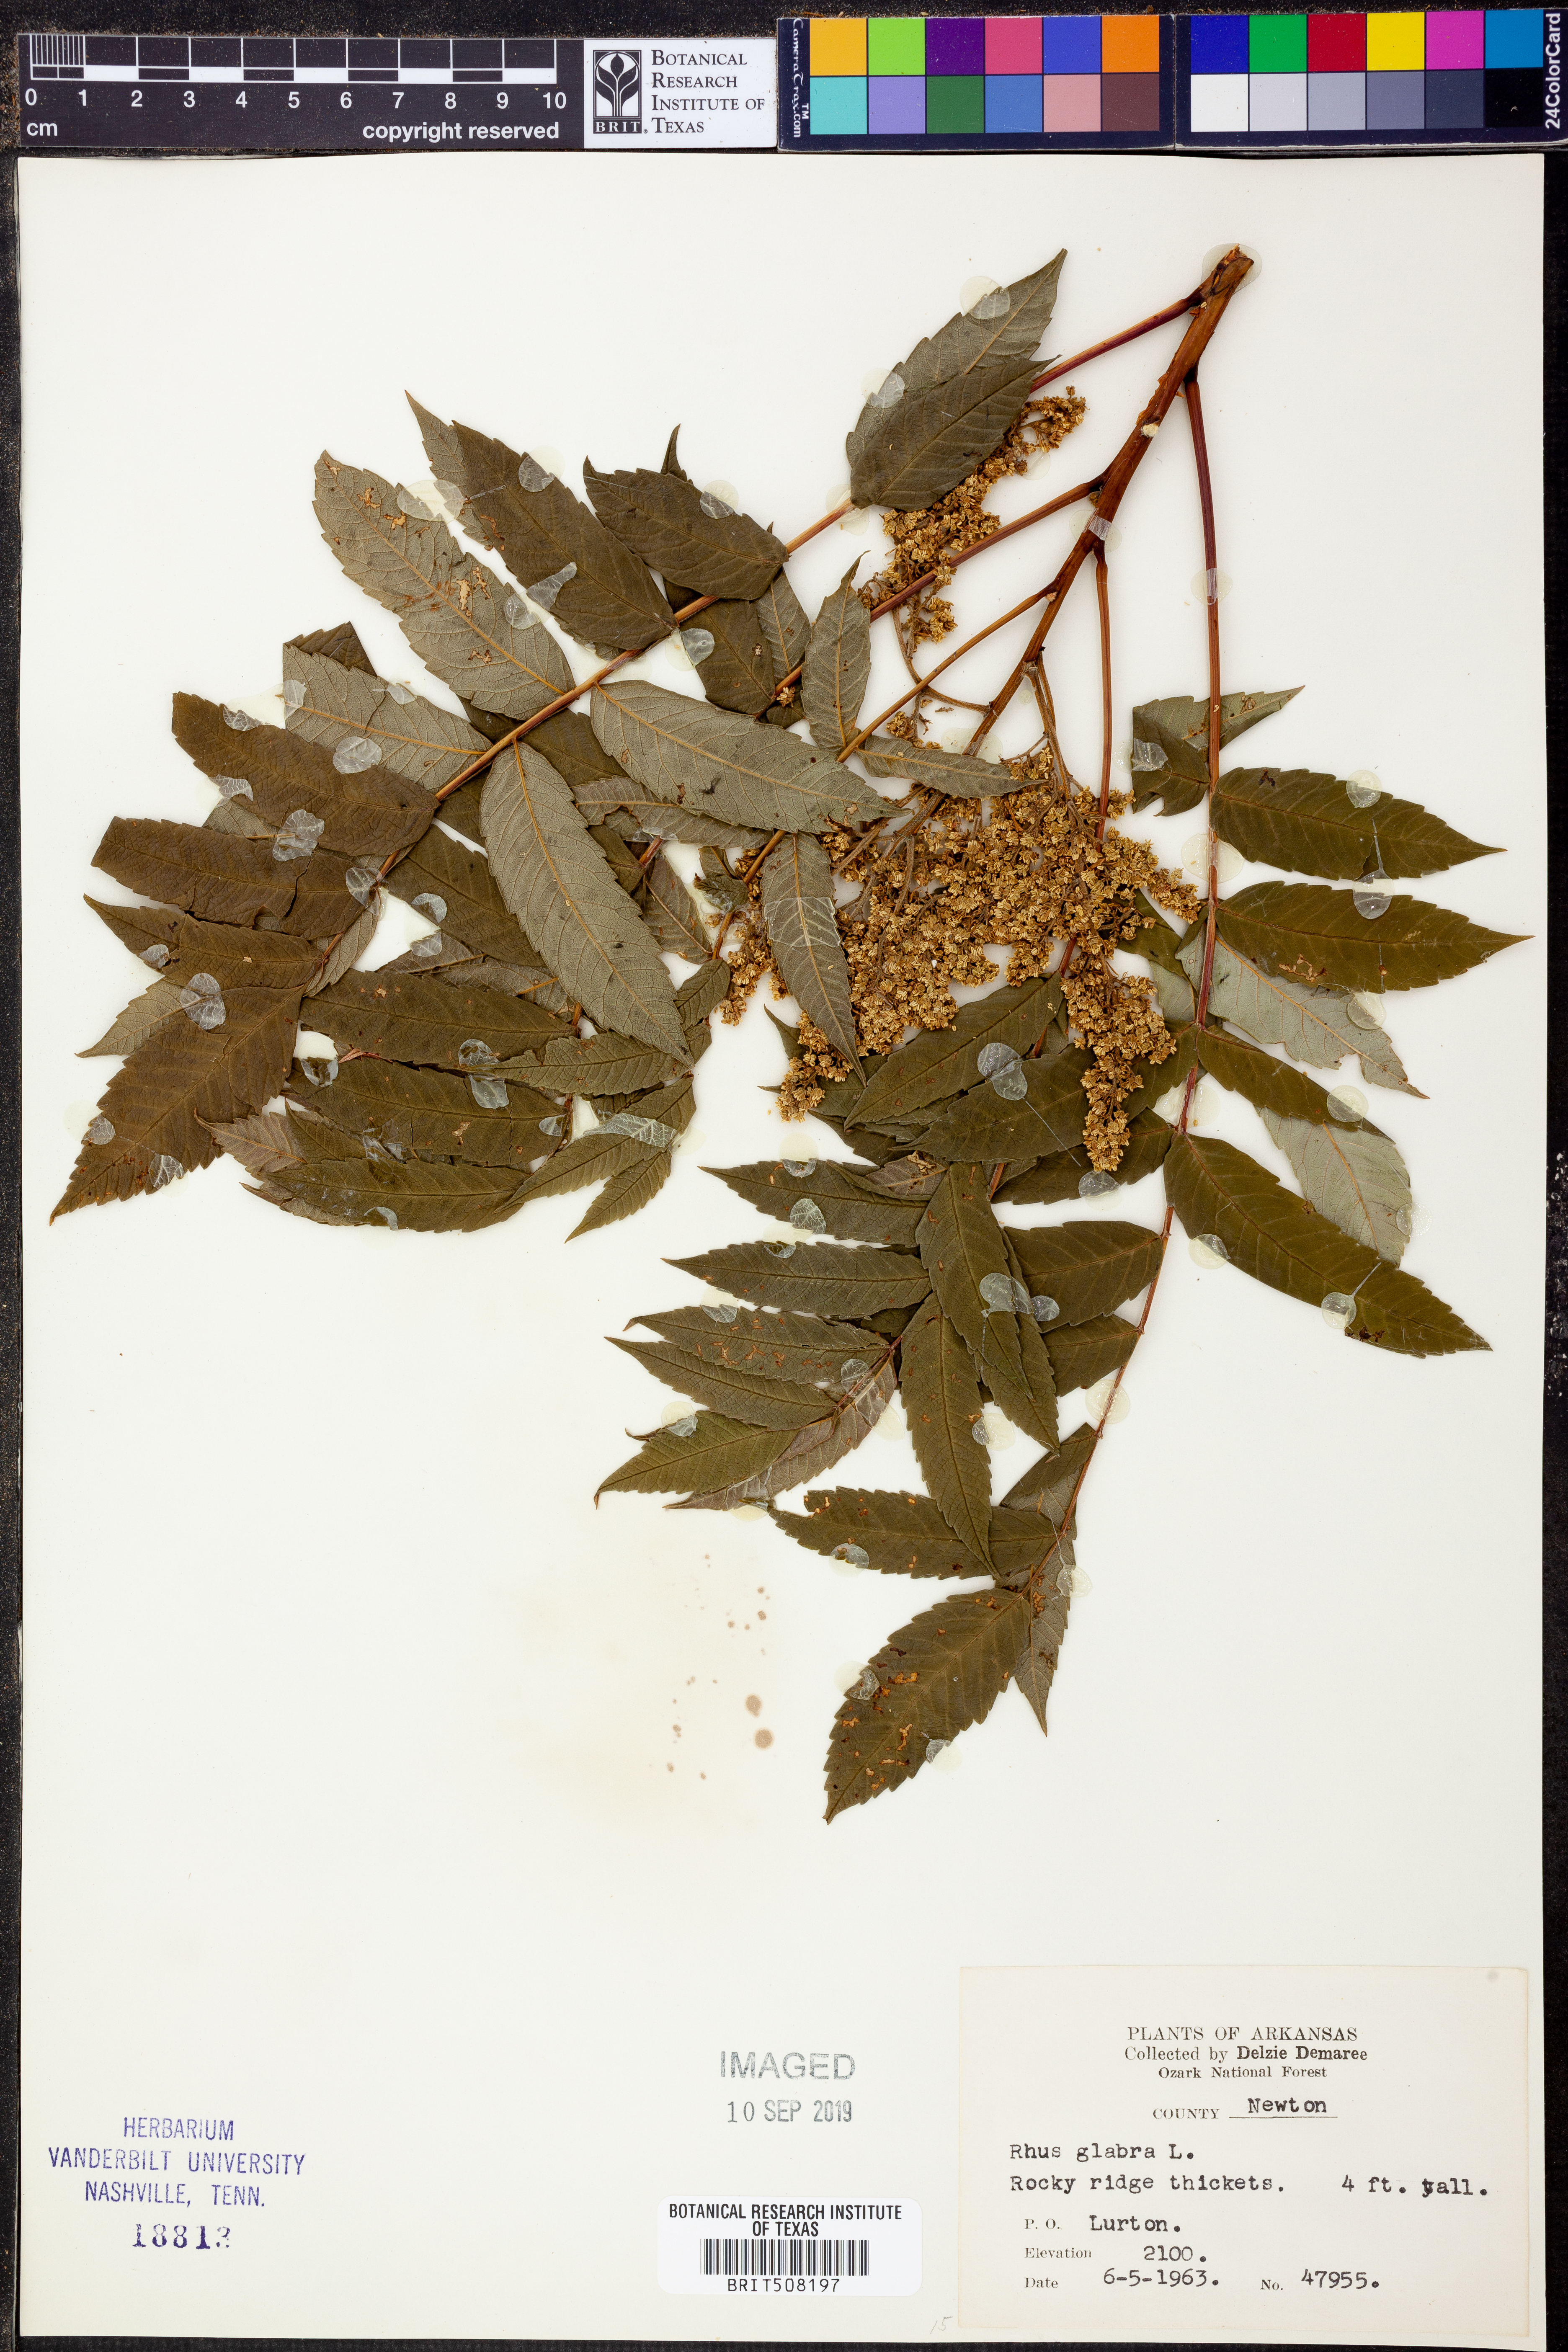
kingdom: Plantae
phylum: Tracheophyta
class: Magnoliopsida
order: Sapindales
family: Anacardiaceae
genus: Rhus
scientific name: Rhus glabra
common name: Scarlet sumac
